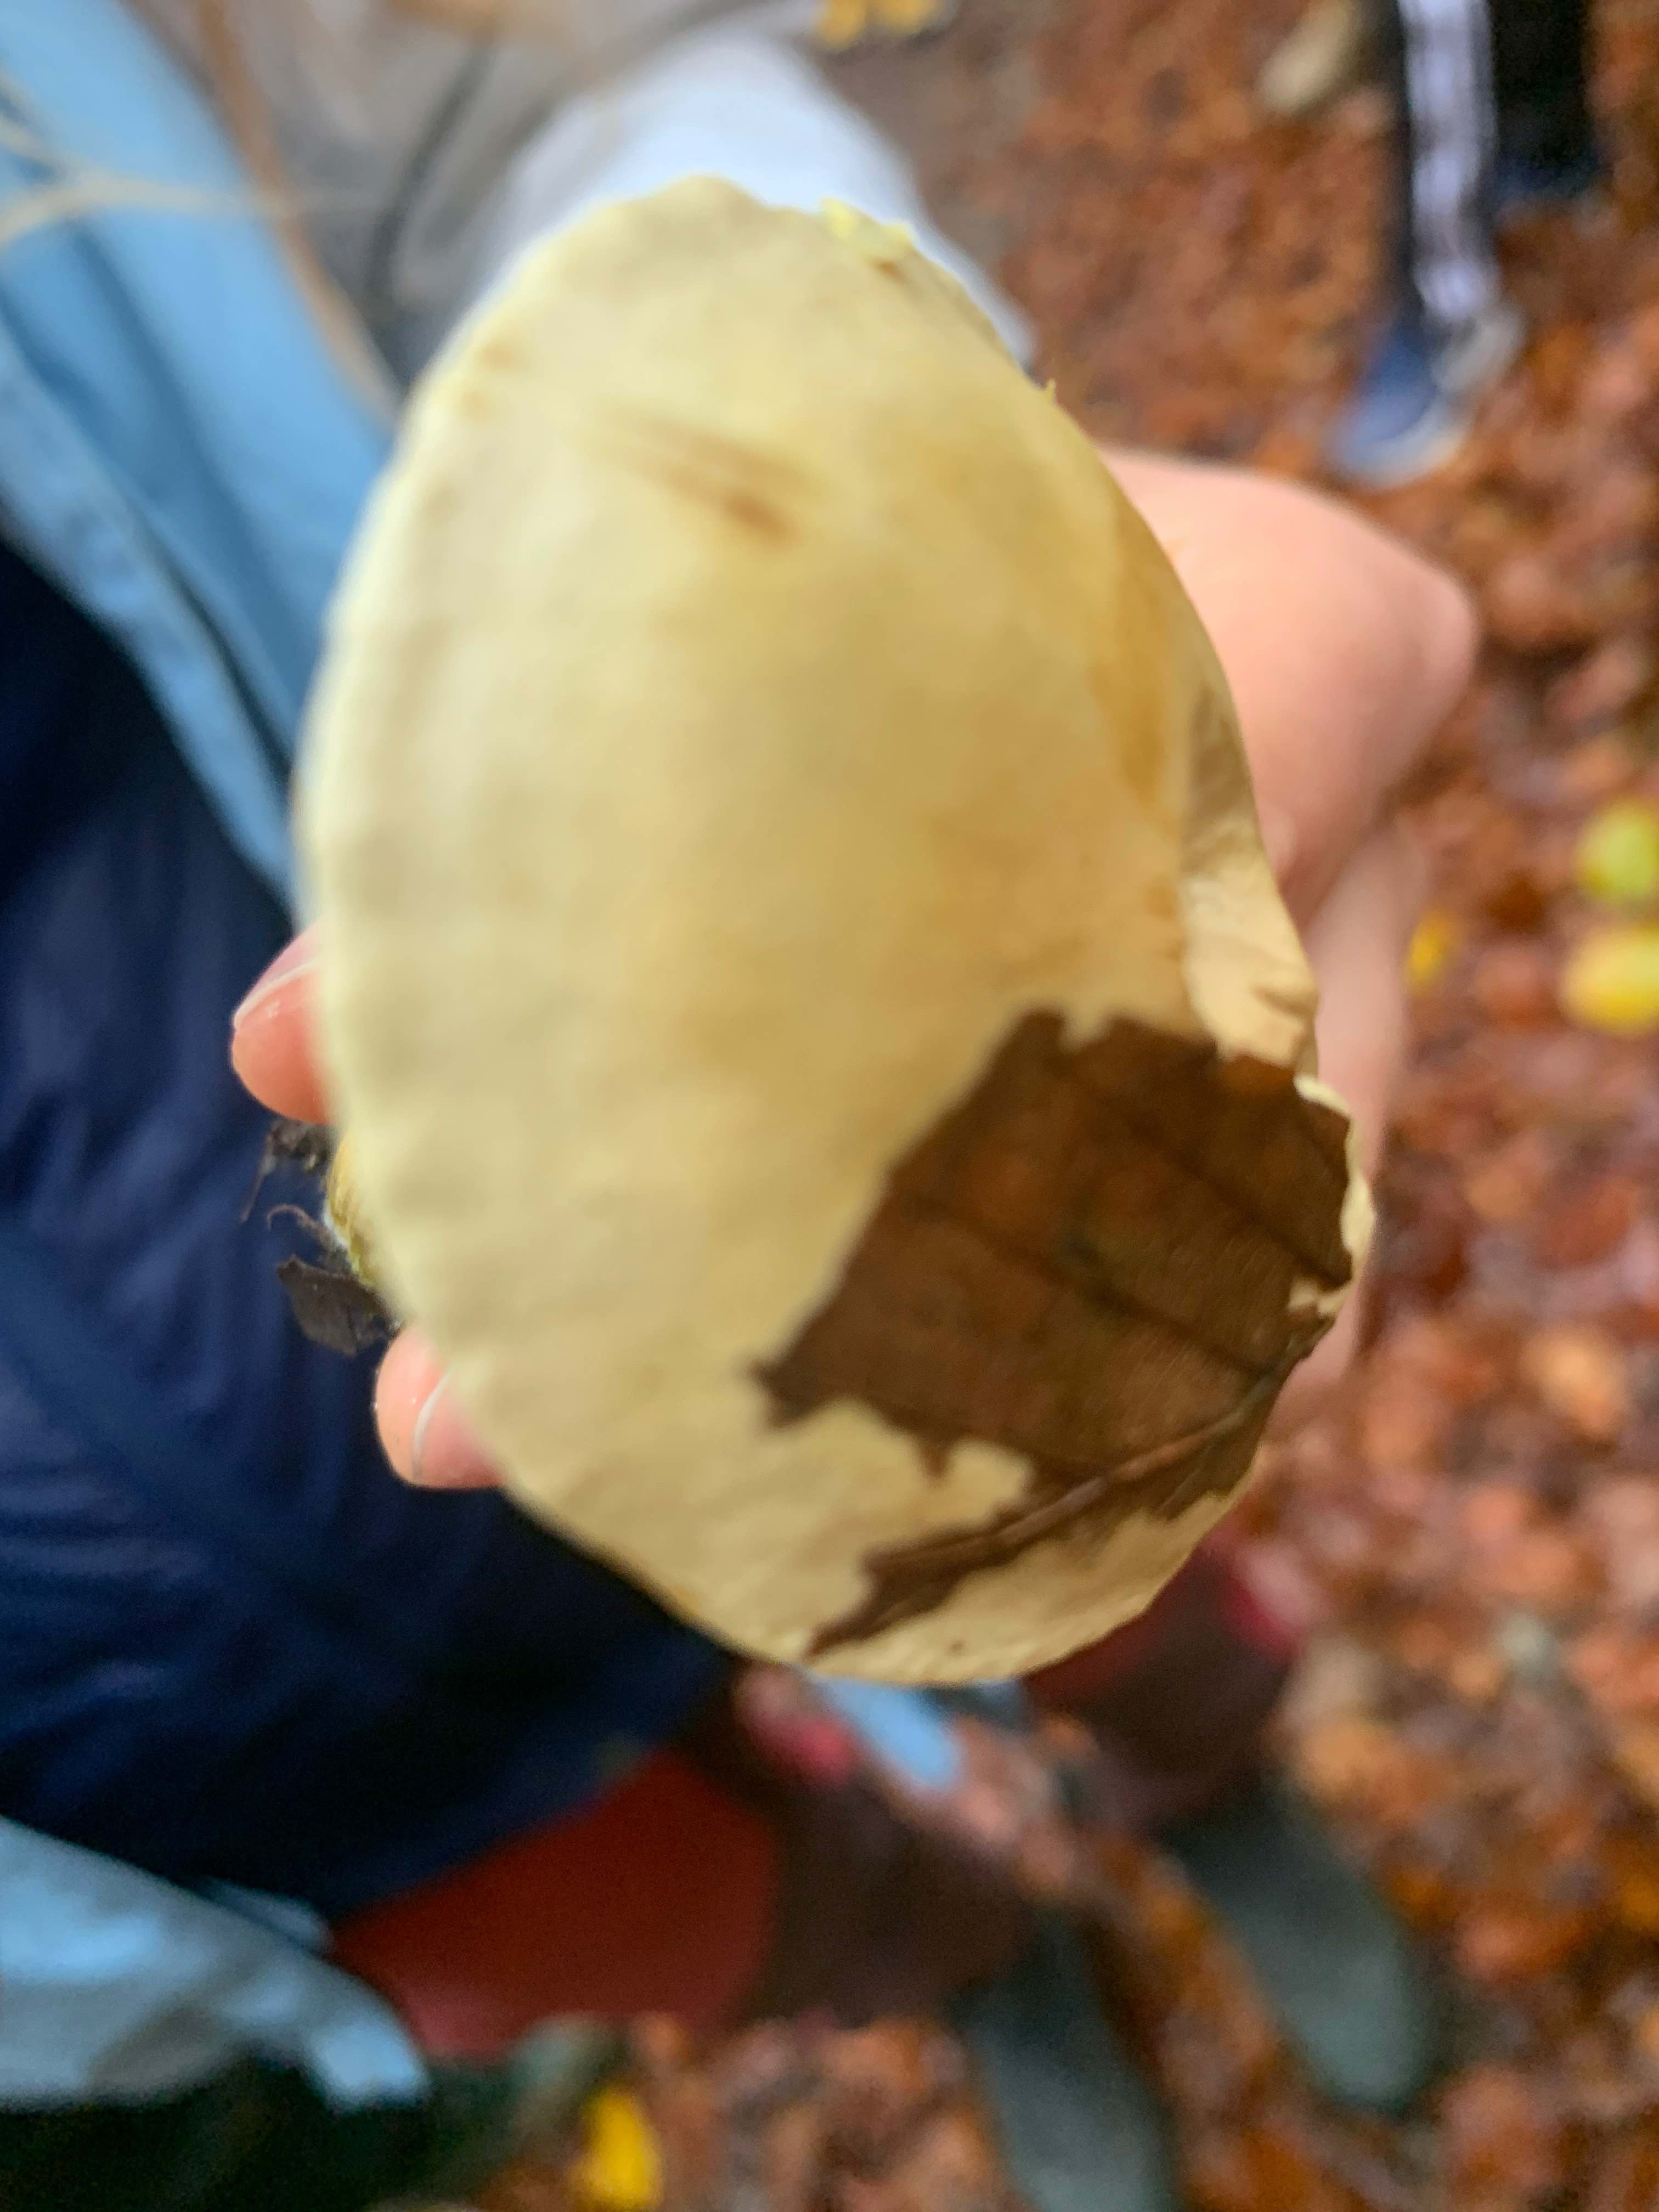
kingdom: Fungi
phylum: Basidiomycota
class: Agaricomycetes
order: Agaricales
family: Tricholomataceae
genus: Tricholoma
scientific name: Tricholoma sulphureum
